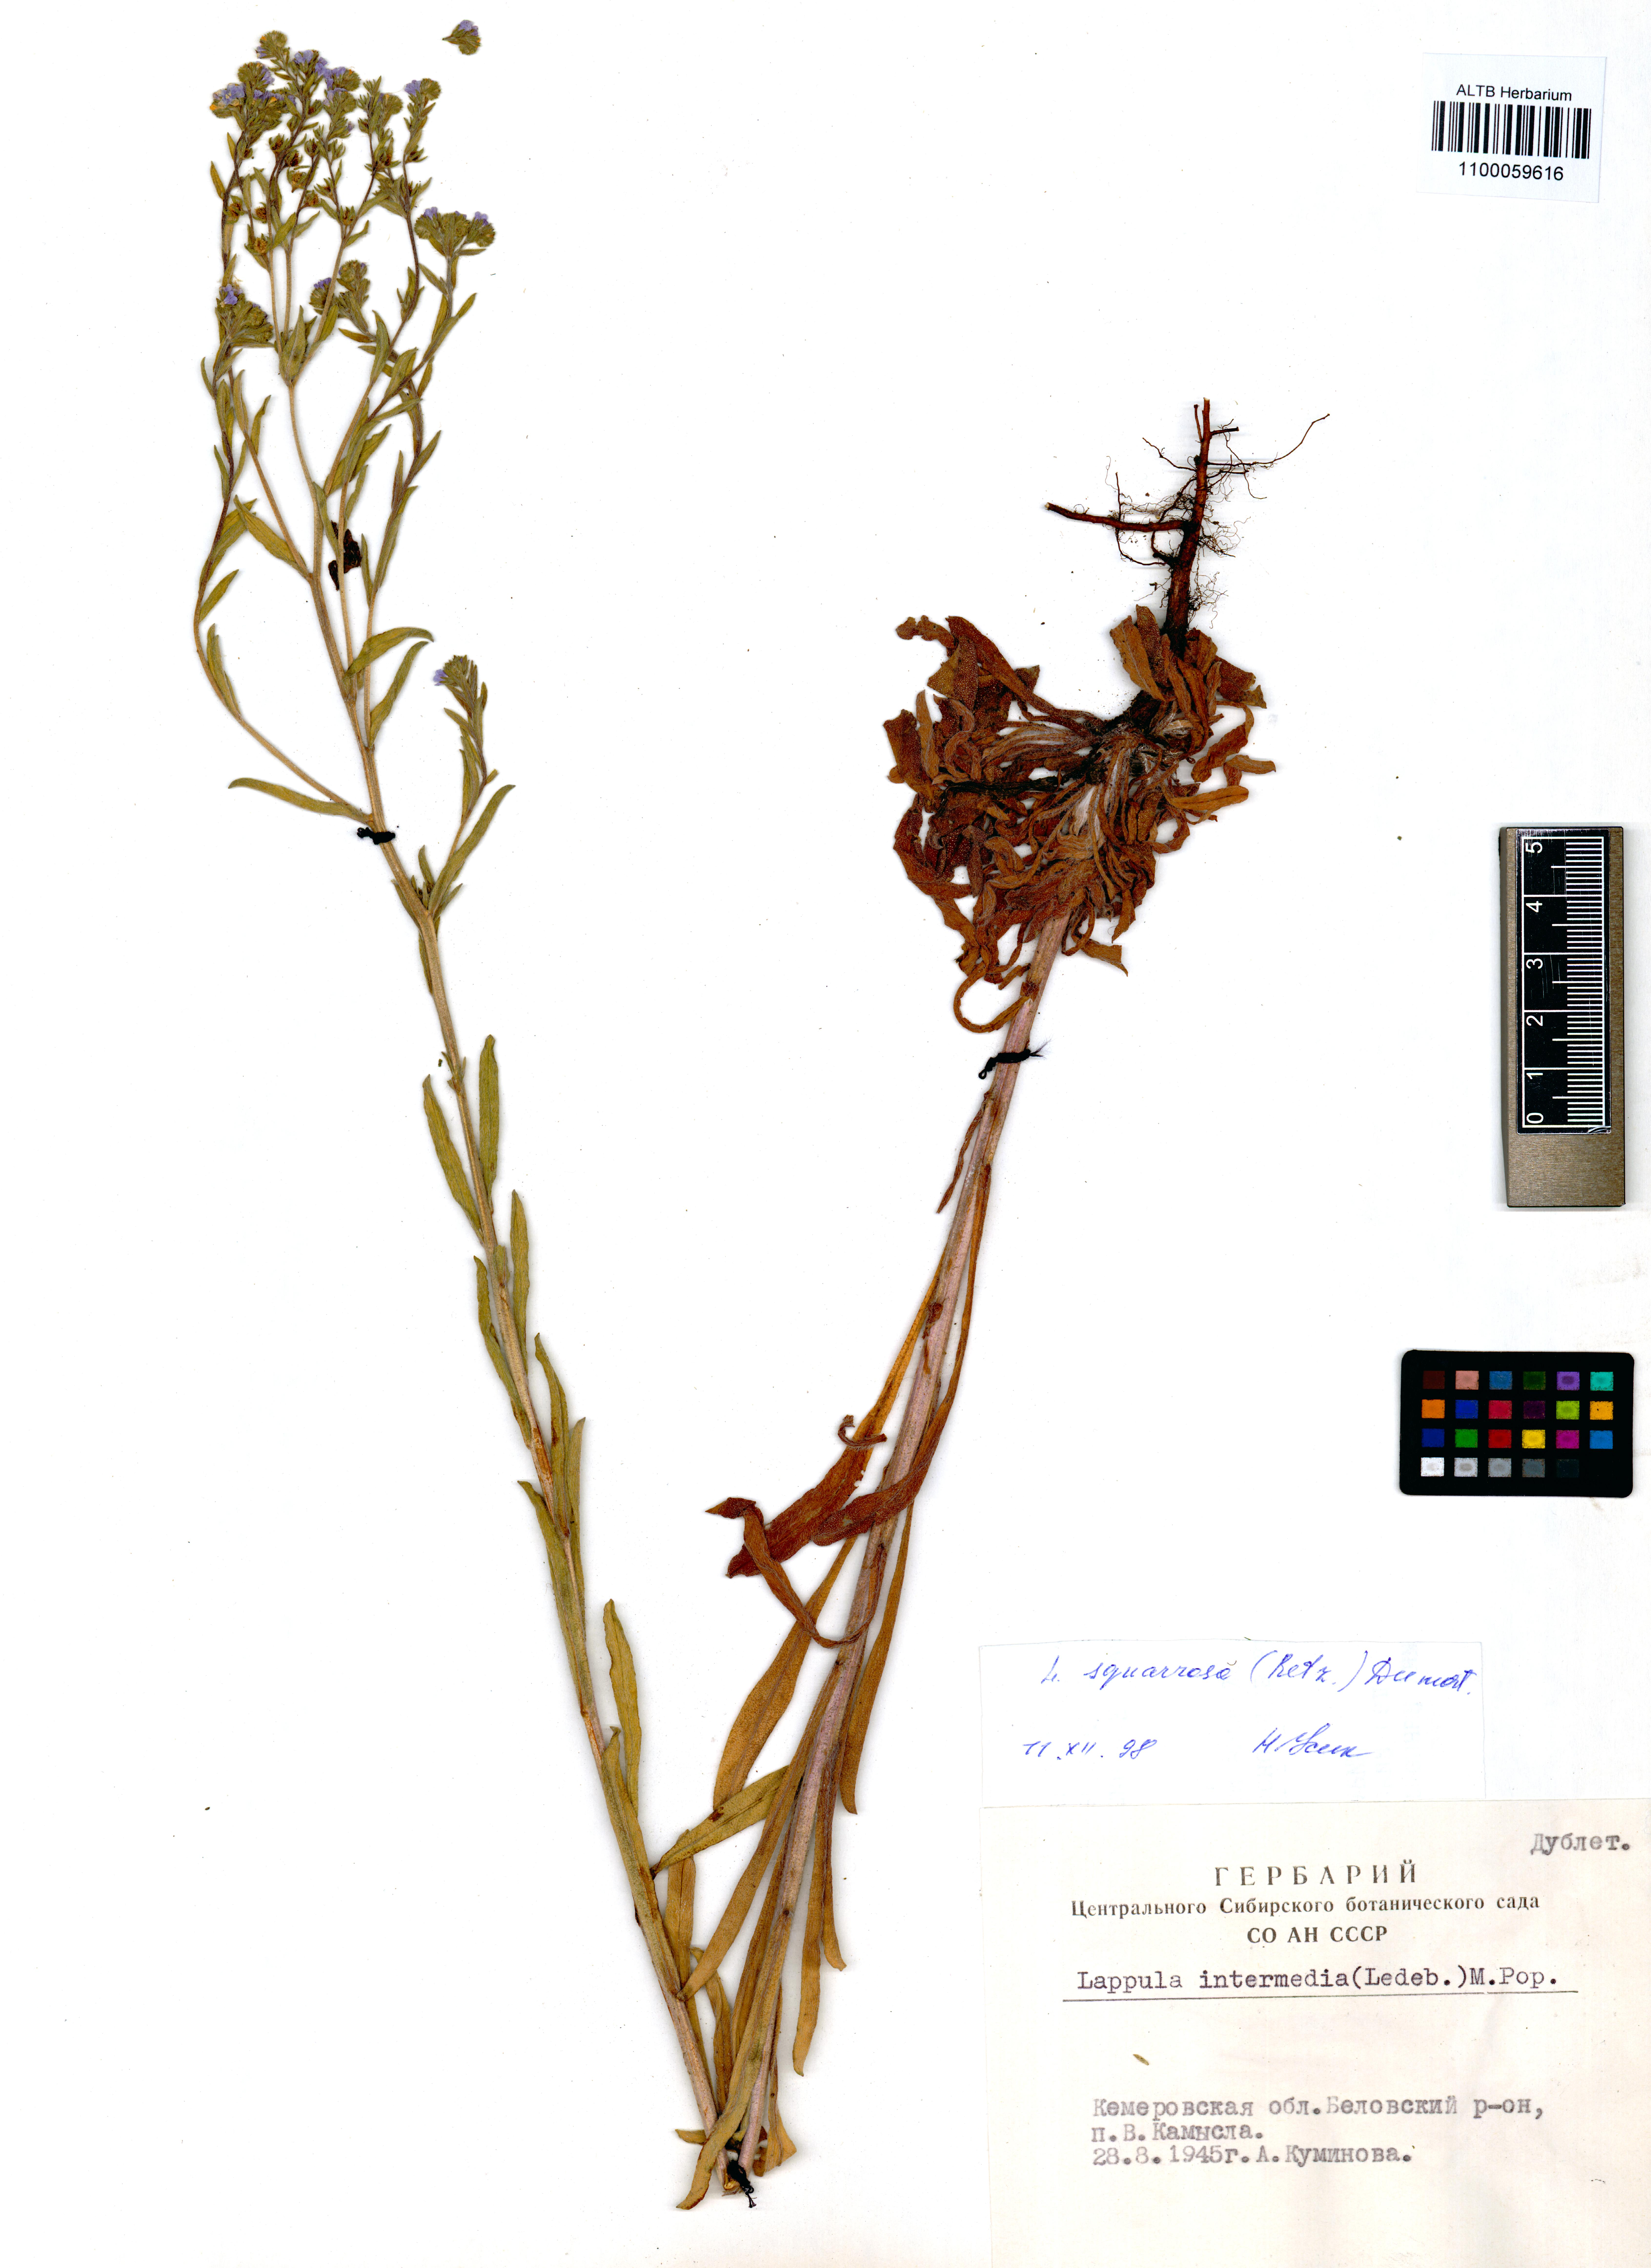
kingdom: Plantae
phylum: Tracheophyta
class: Magnoliopsida
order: Boraginales
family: Boraginaceae
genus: Lappula
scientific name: Lappula squarrosa
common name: European stickseed
